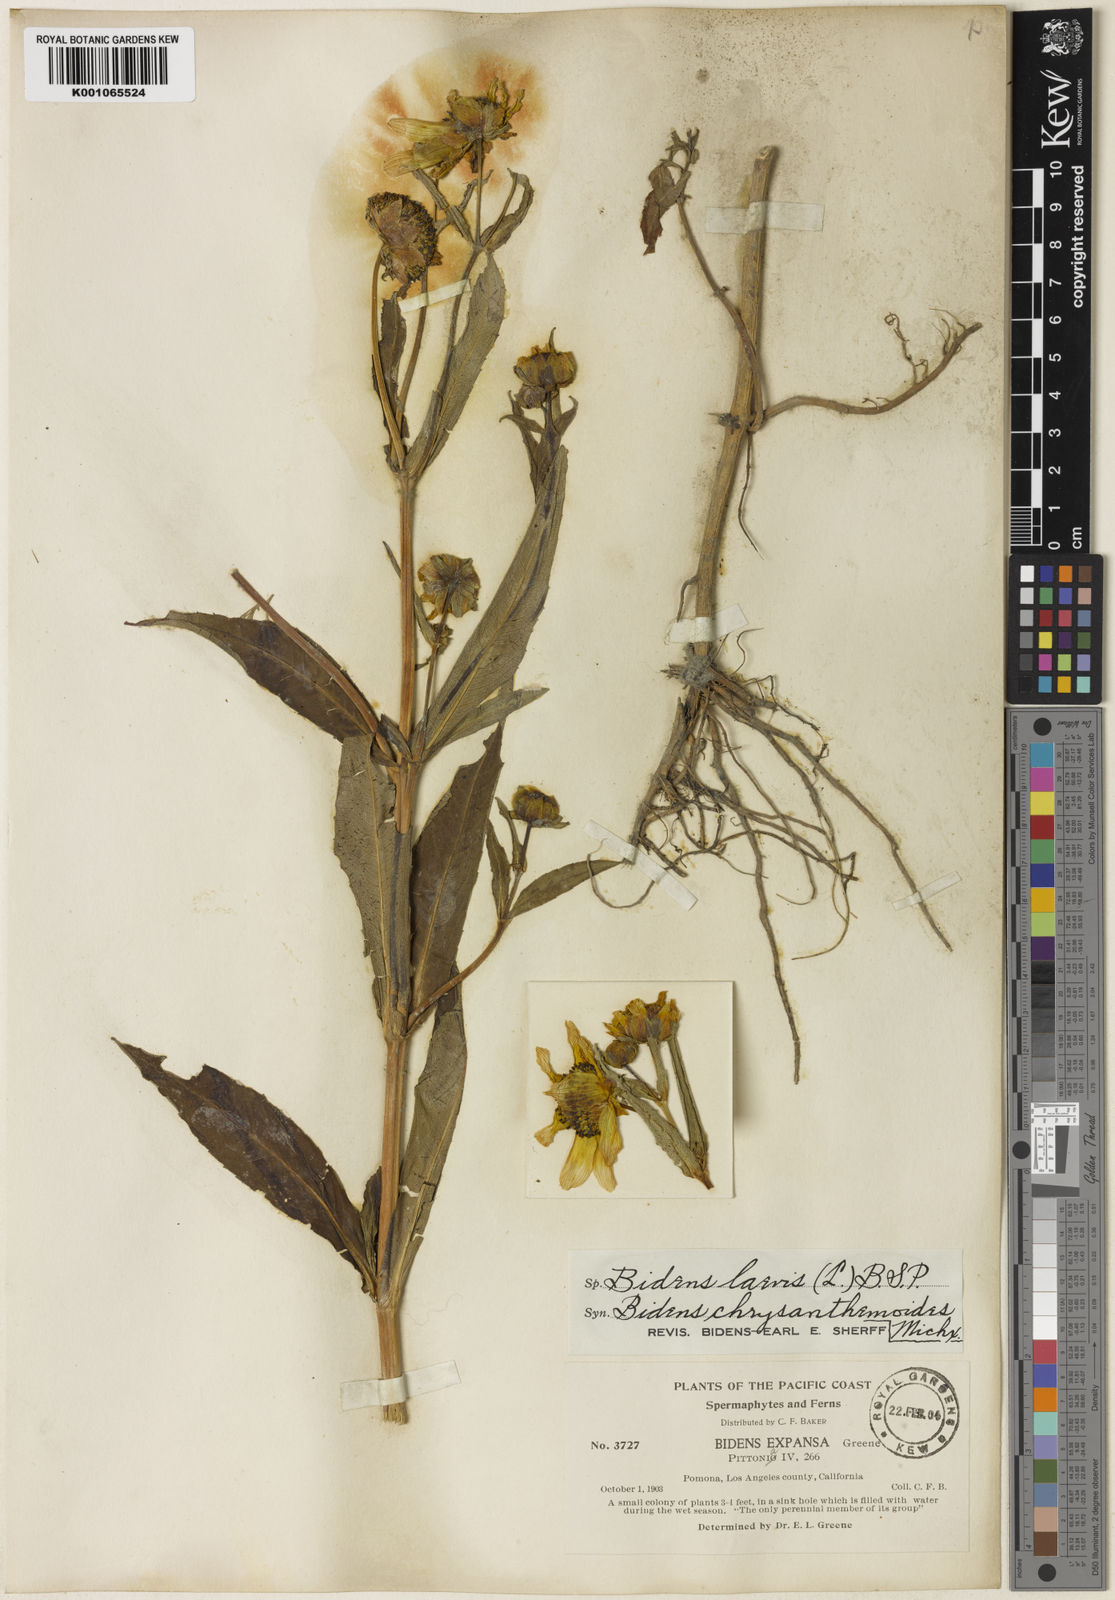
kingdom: Plantae
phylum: Tracheophyta
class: Magnoliopsida
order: Asterales
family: Asteraceae
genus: Bidens
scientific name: Bidens laevis
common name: Larger bur-marigold
